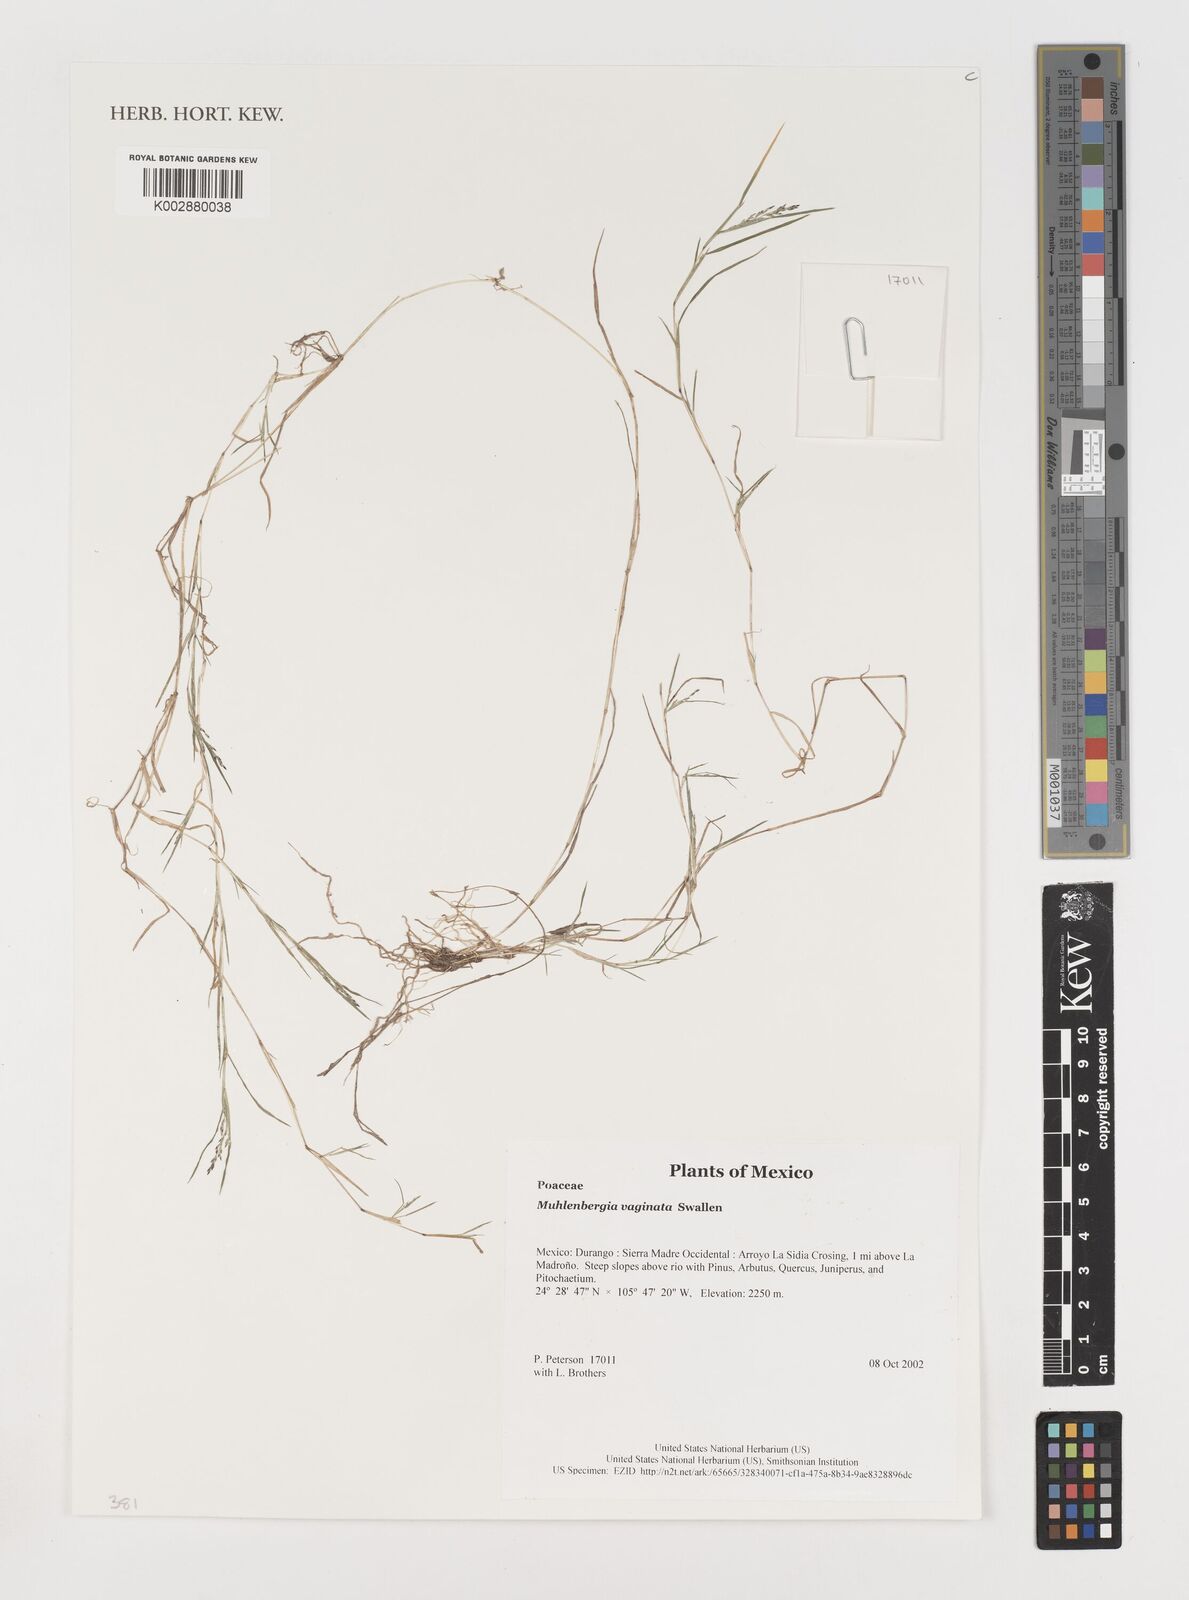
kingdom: Plantae
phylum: Tracheophyta
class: Liliopsida
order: Poales
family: Poaceae
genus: Muhlenbergia
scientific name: Muhlenbergia vaginata
